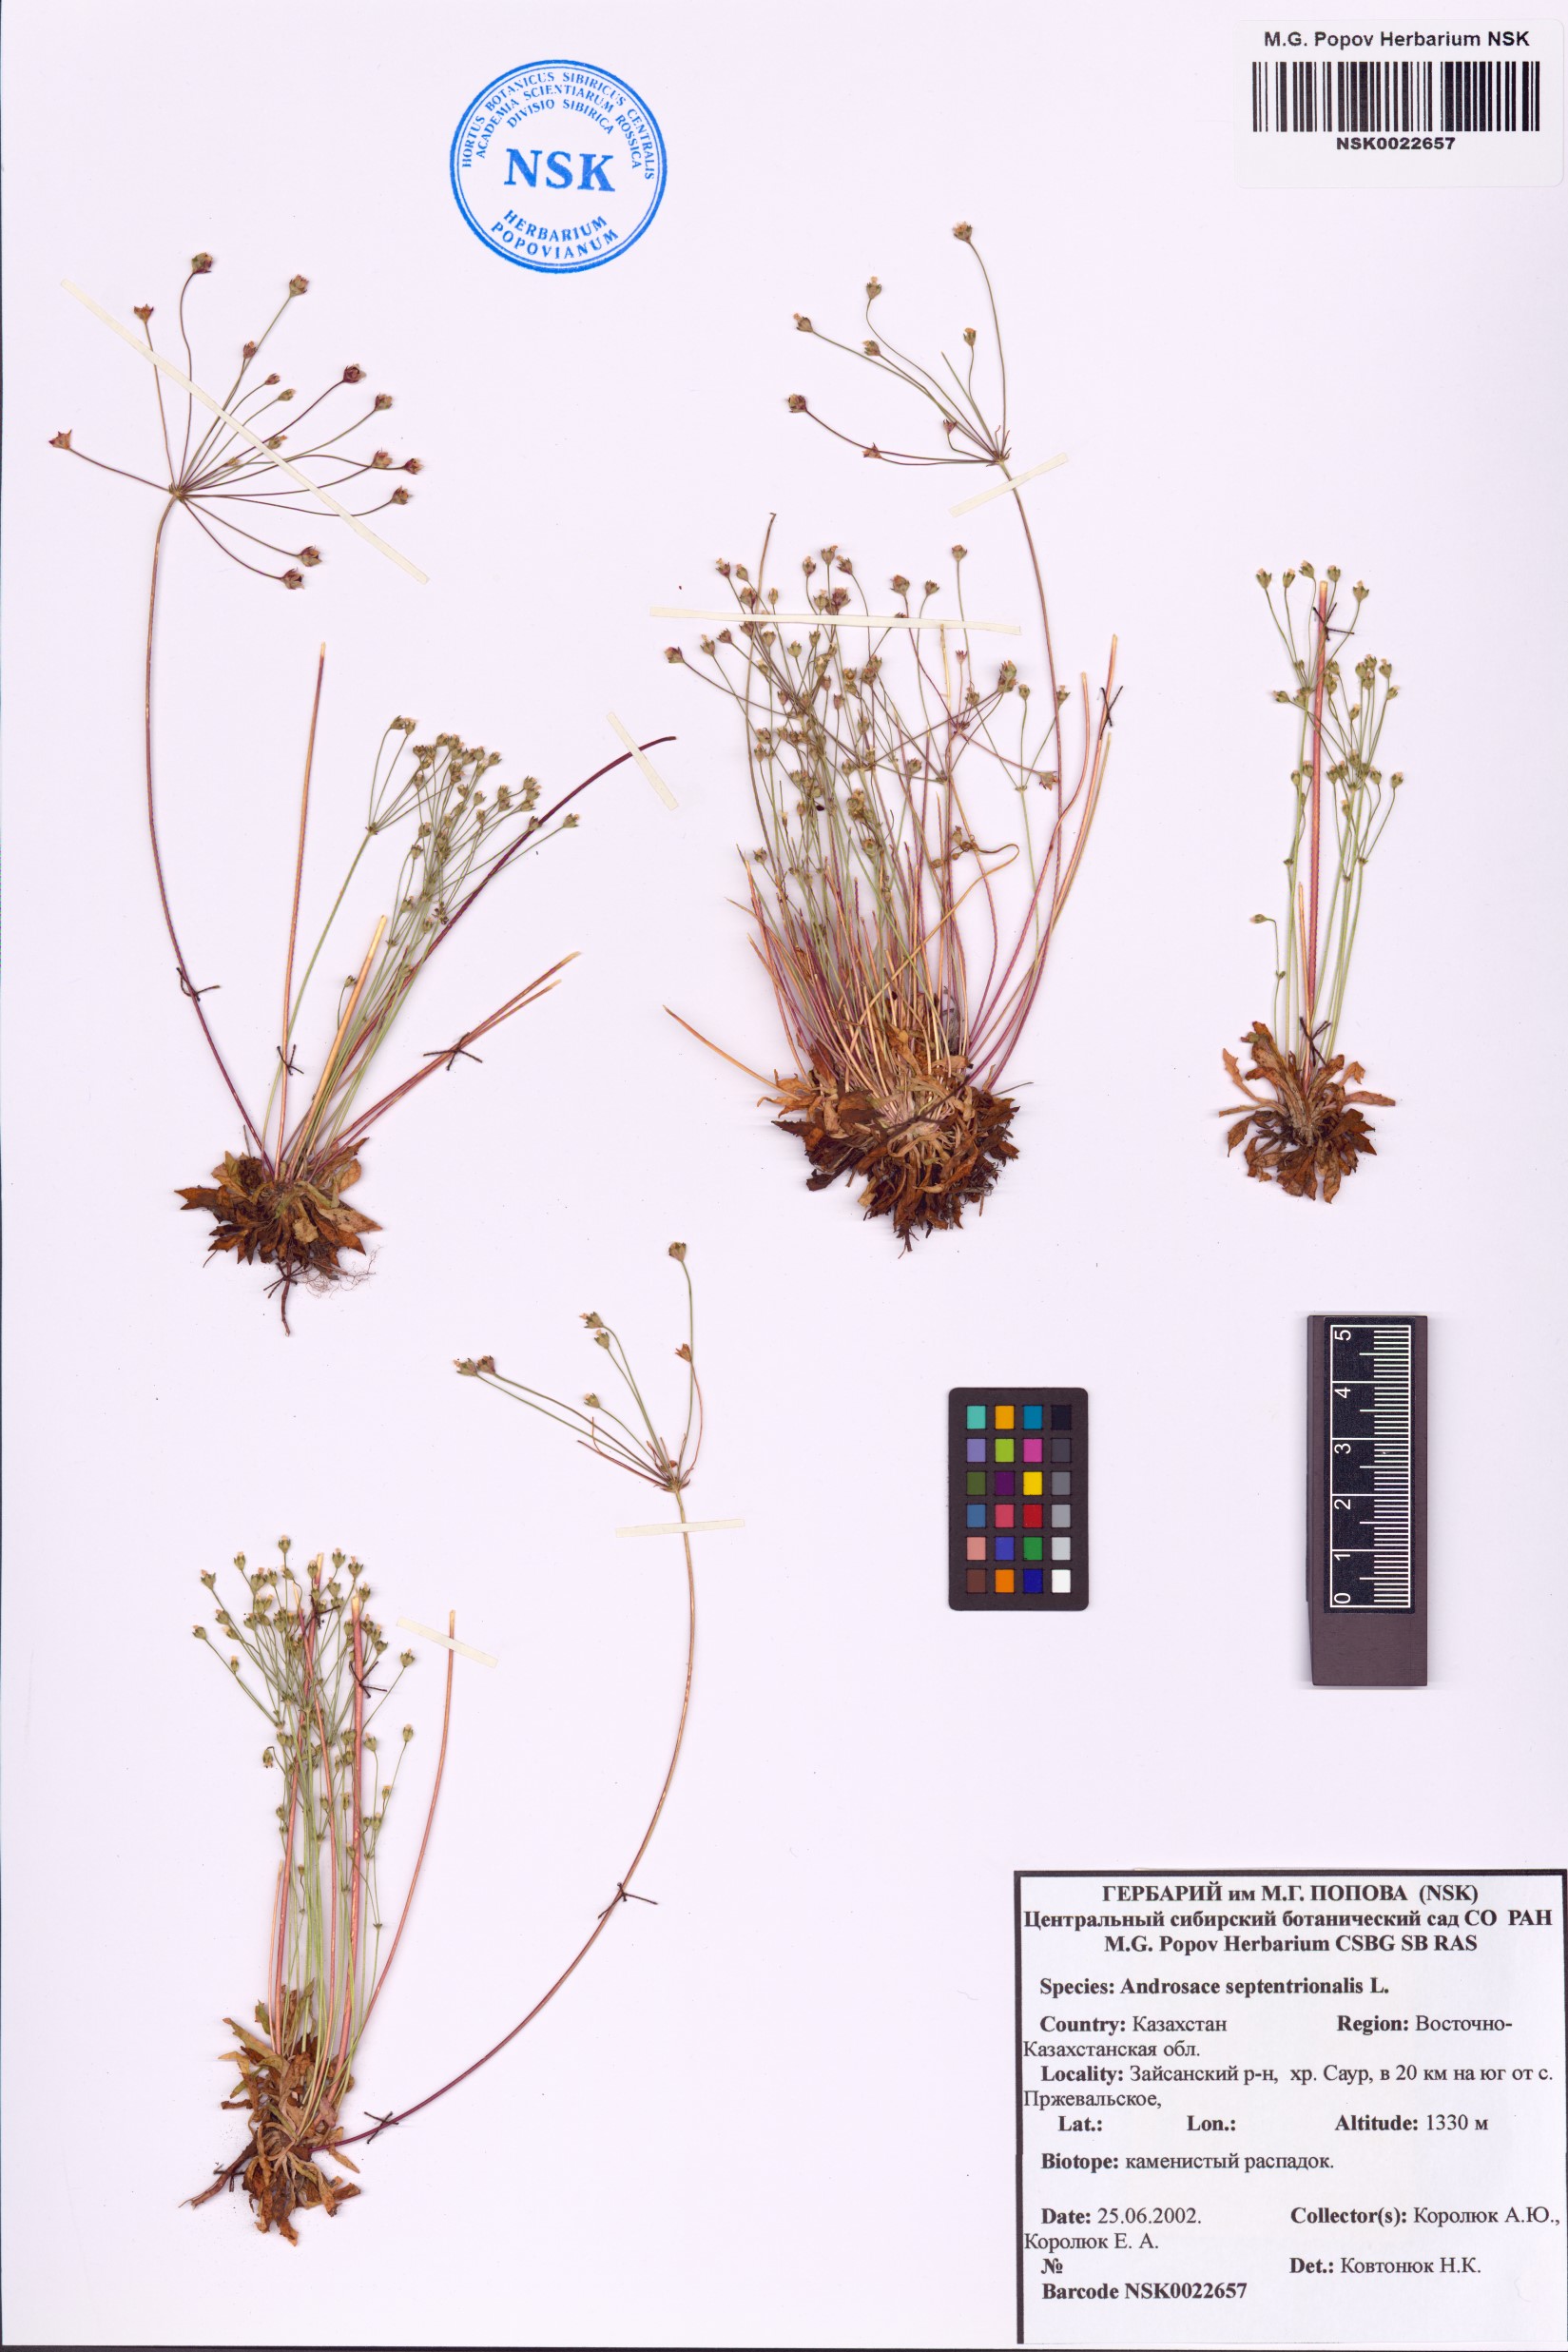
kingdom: Plantae
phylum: Tracheophyta
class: Magnoliopsida
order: Ericales
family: Primulaceae
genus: Androsace
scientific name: Androsace septentrionalis
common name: Hairy northern fairy-candelabra
